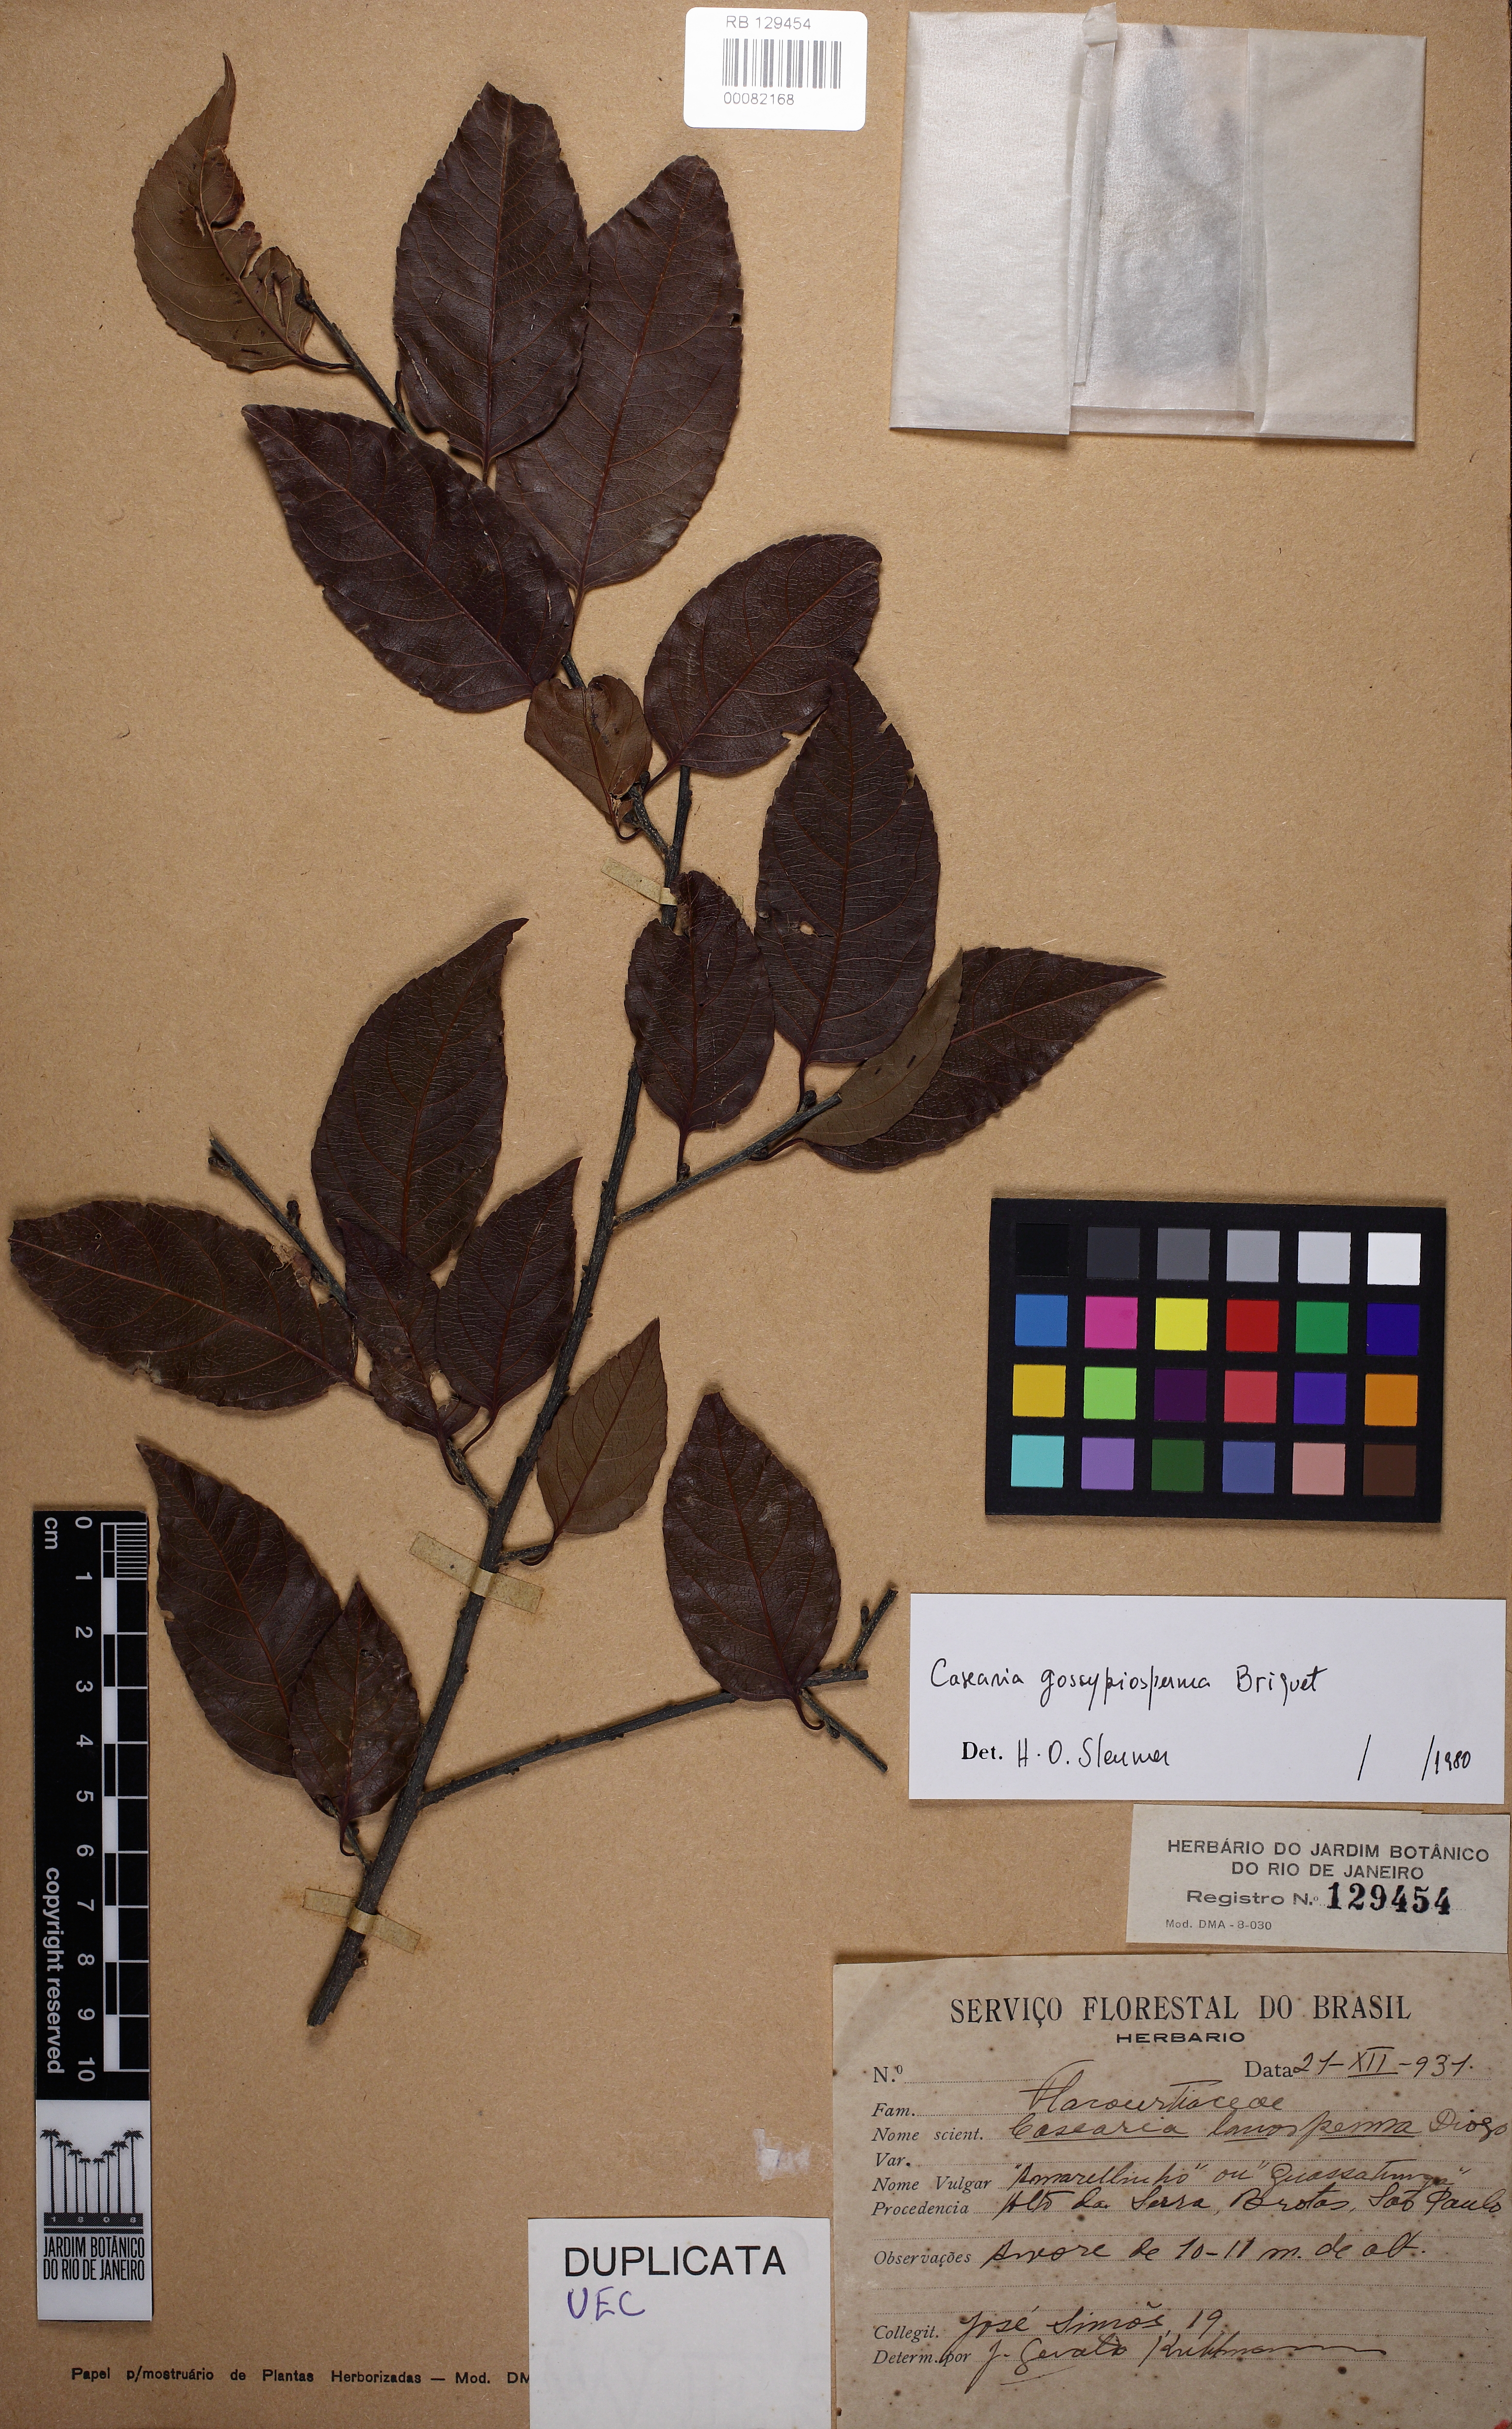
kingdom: Plantae
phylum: Tracheophyta
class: Magnoliopsida
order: Malpighiales
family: Salicaceae
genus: Casearia
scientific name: Casearia gossypiosperma
